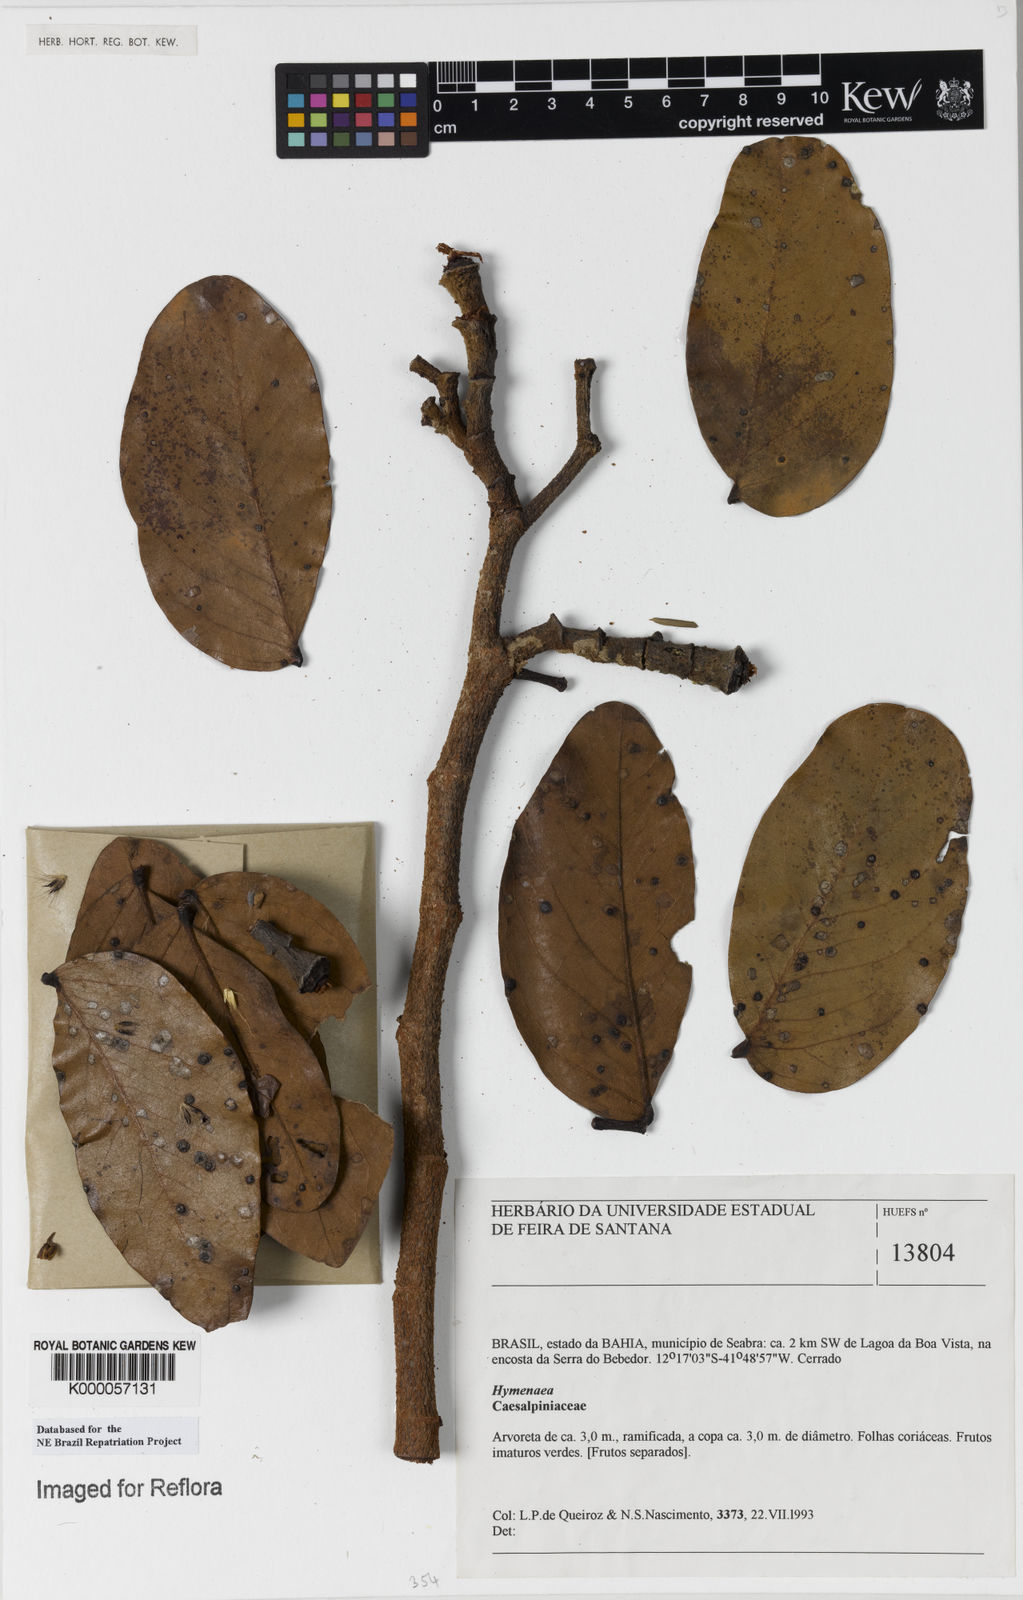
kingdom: Plantae
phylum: Tracheophyta
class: Magnoliopsida
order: Fabales
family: Fabaceae
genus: Hymenaea
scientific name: Hymenaea stigonocarpa
